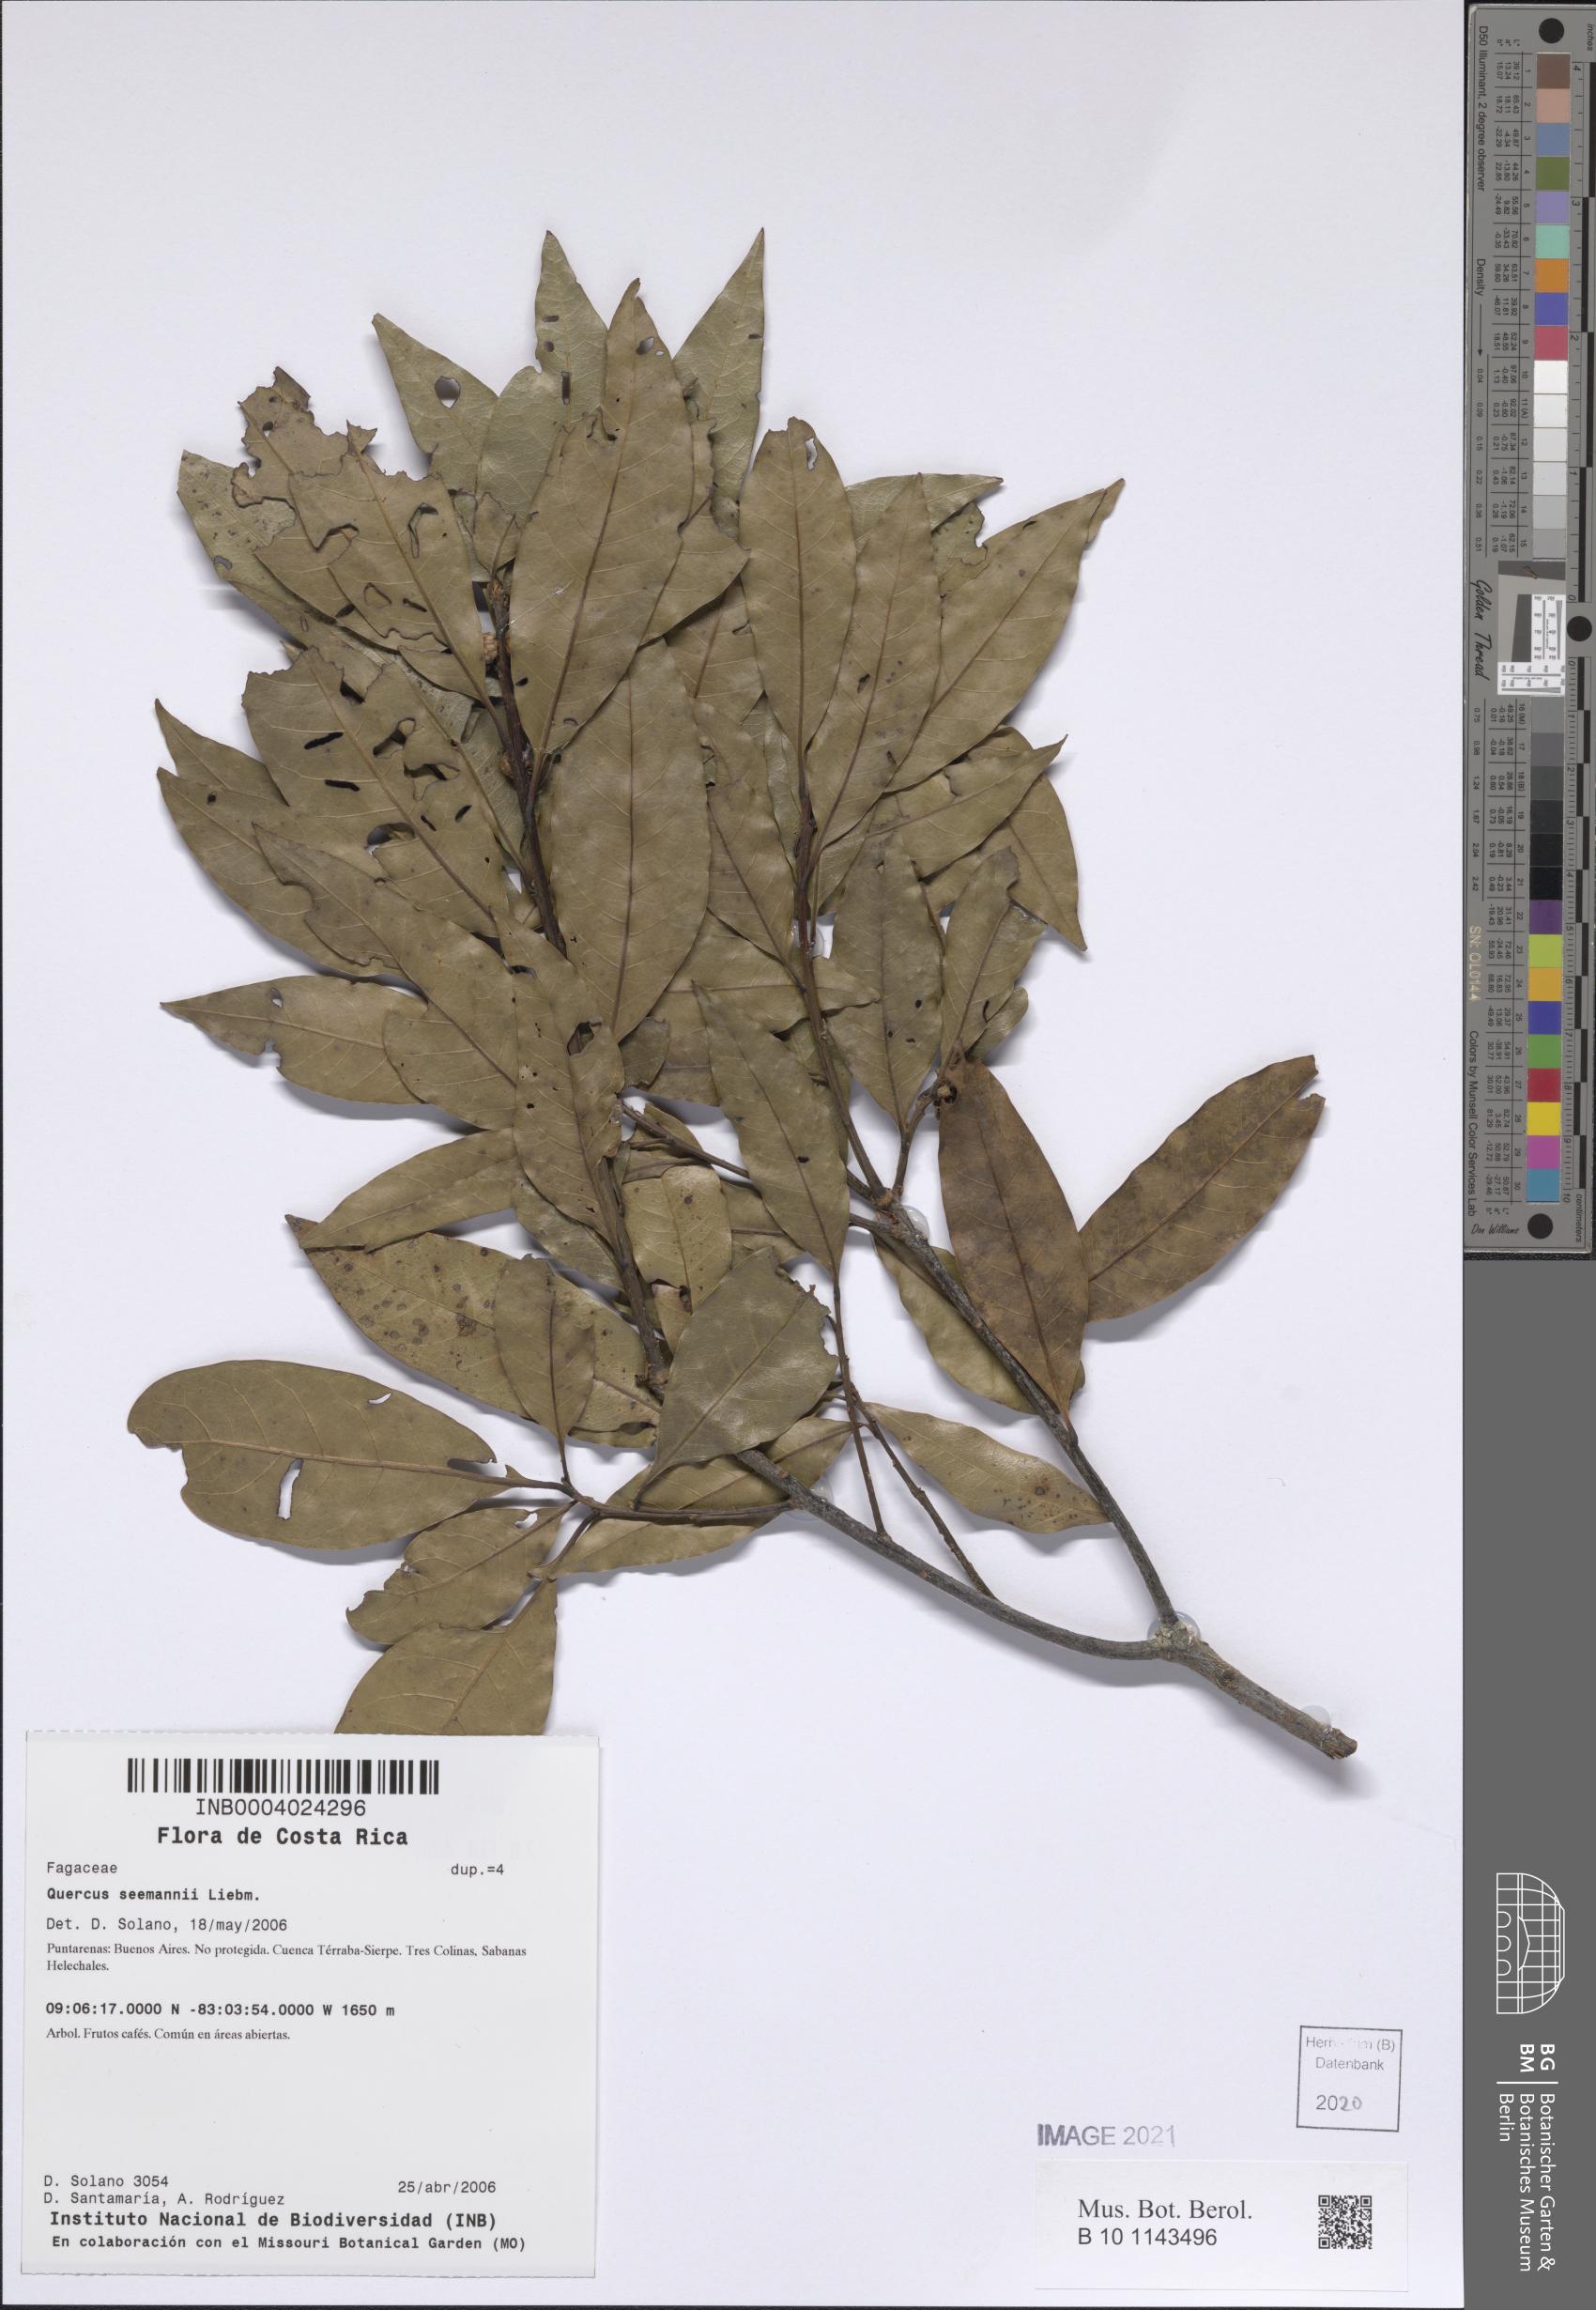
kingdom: Plantae
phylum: Tracheophyta
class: Magnoliopsida
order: Fagales
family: Fagaceae
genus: Quercus
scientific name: Quercus seemannii
